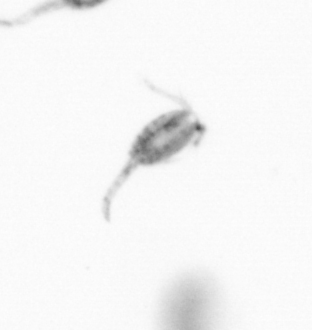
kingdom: Animalia
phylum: Arthropoda
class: Copepoda
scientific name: Copepoda
